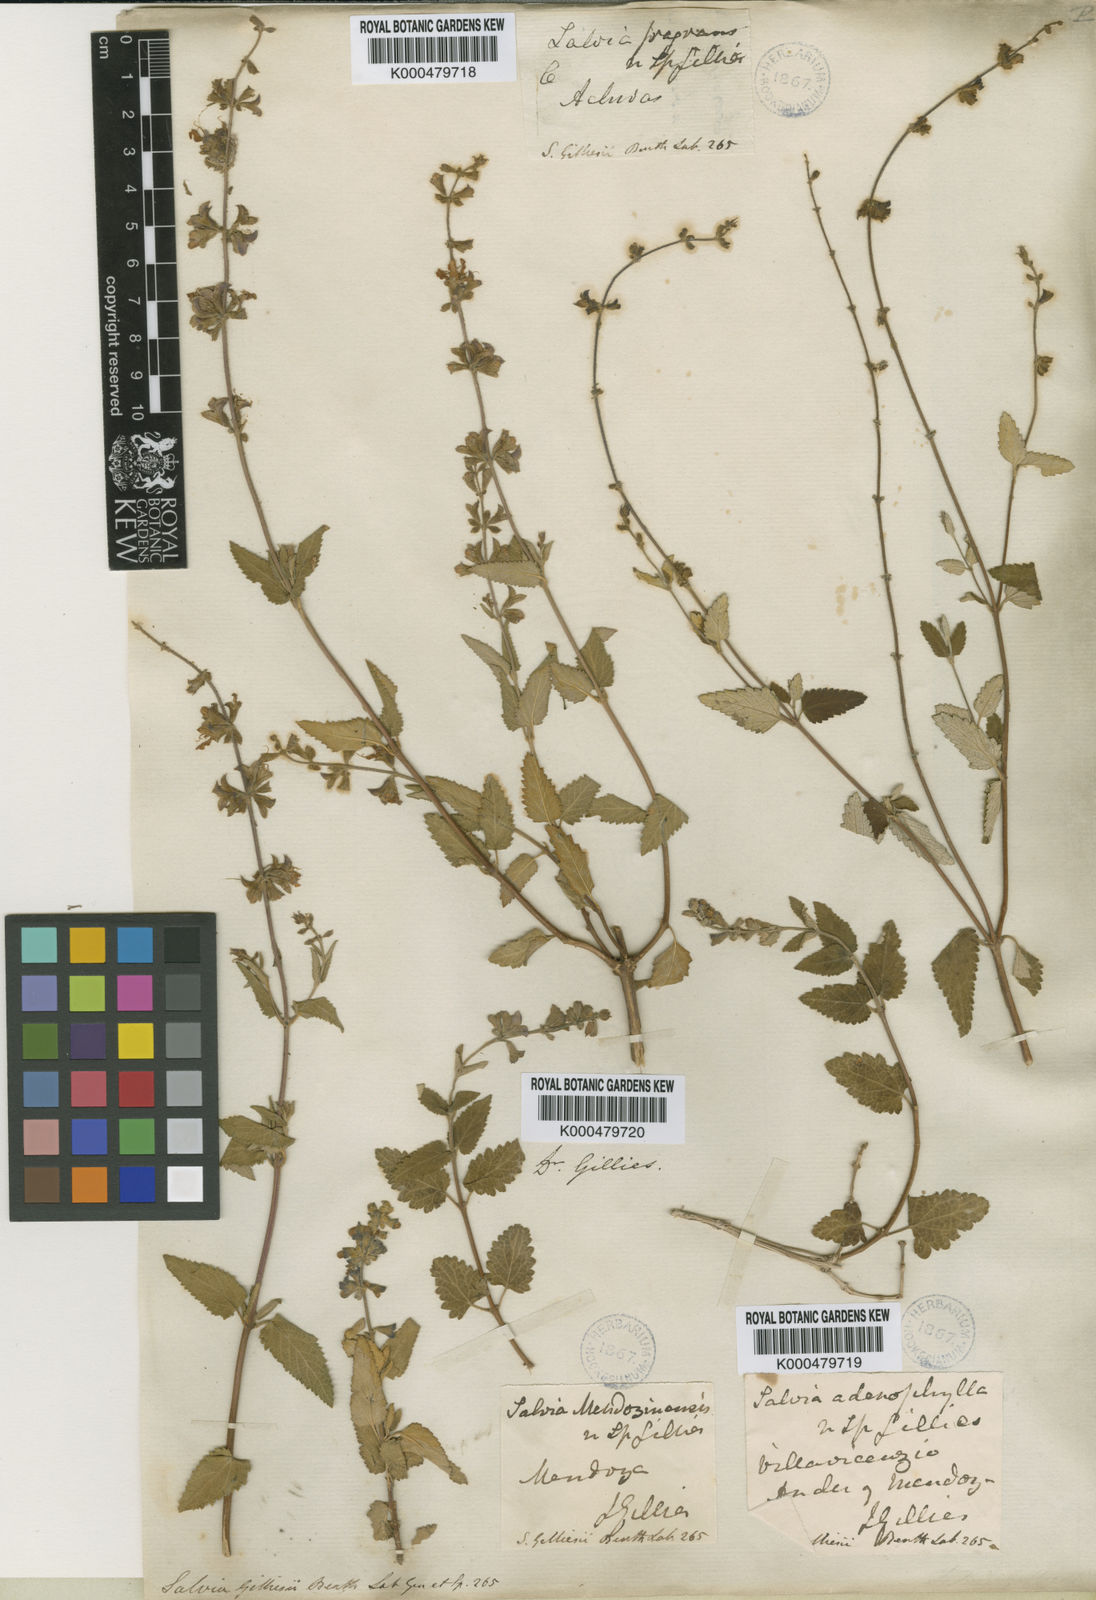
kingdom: Plantae
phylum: Tracheophyta
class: Magnoliopsida
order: Lamiales
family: Lamiaceae
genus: Salvia
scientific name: Salvia cuspidata
